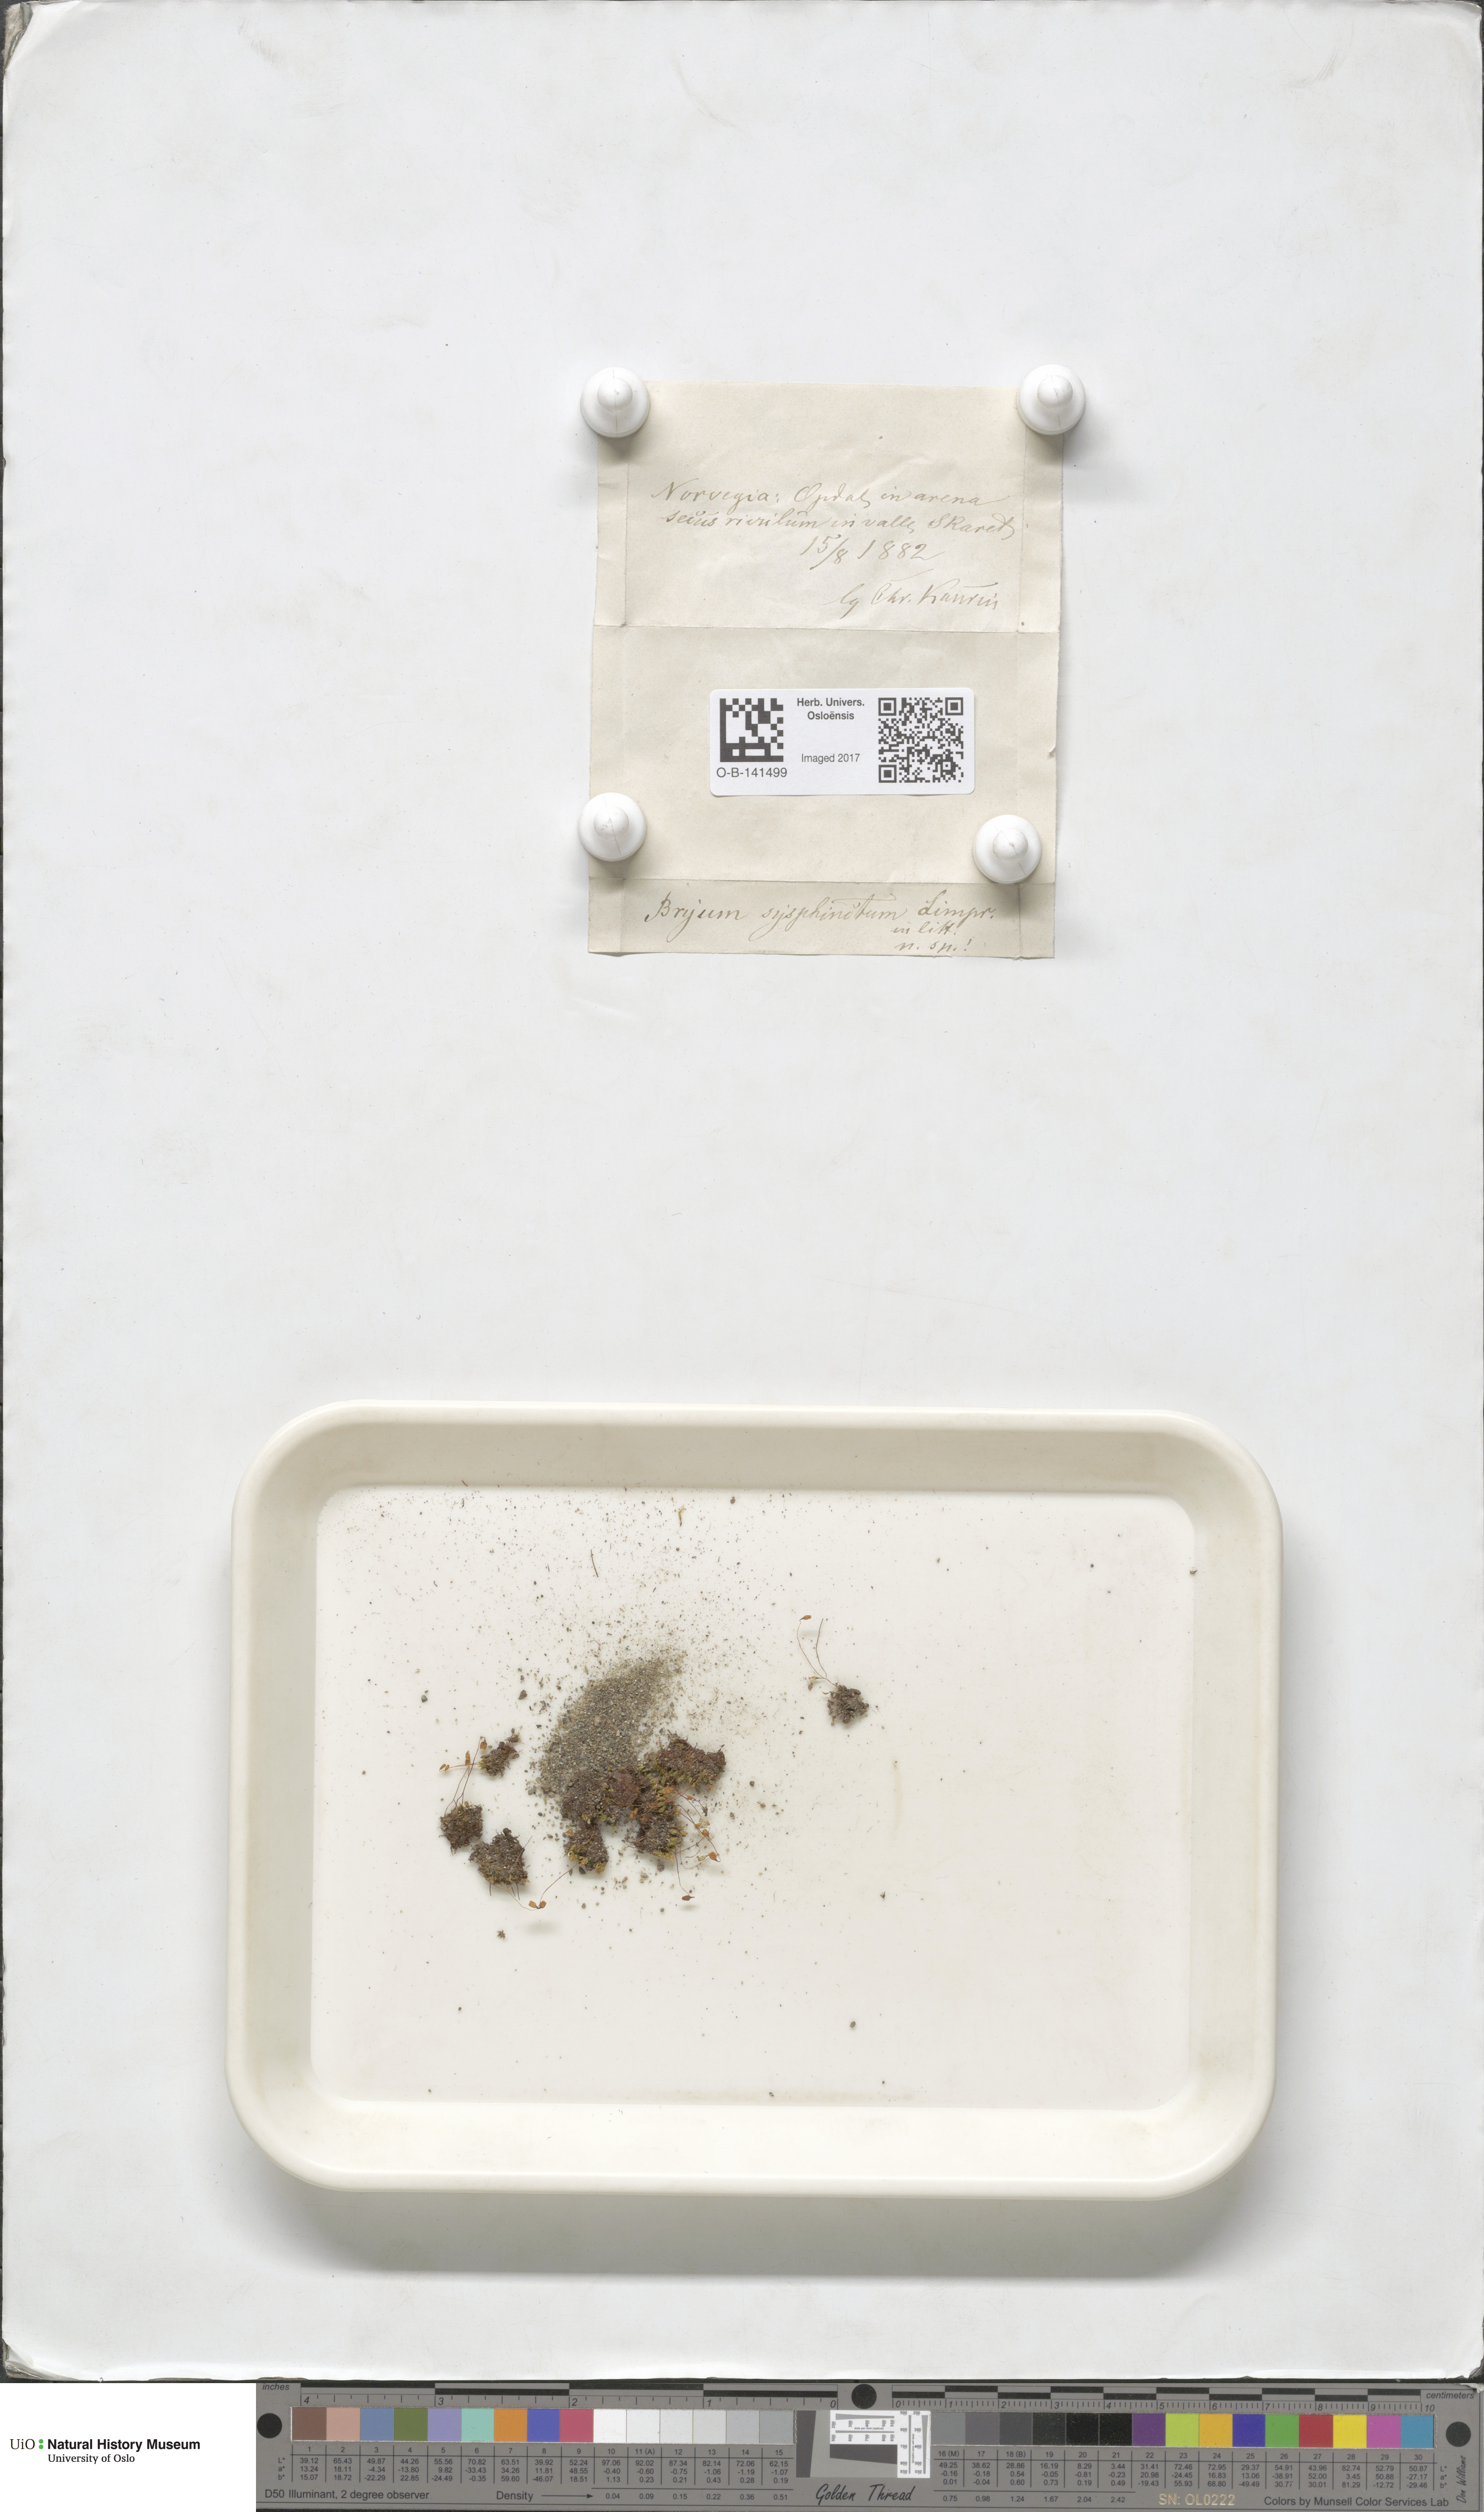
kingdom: Plantae
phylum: Bryophyta
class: Bryopsida
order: Bryales
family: Bryaceae
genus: Ptychostomum
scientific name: Ptychostomum pallescens
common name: Tall-clustered thread-moss
